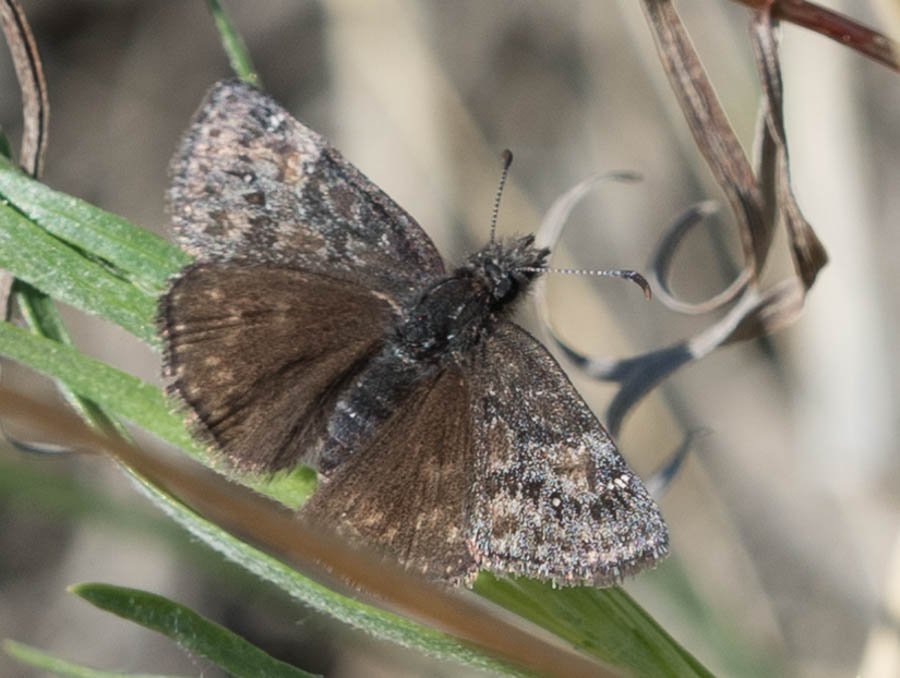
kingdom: Animalia
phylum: Arthropoda
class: Insecta
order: Lepidoptera
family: Hesperiidae
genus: Gesta
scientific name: Gesta
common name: Persius Duskywing
